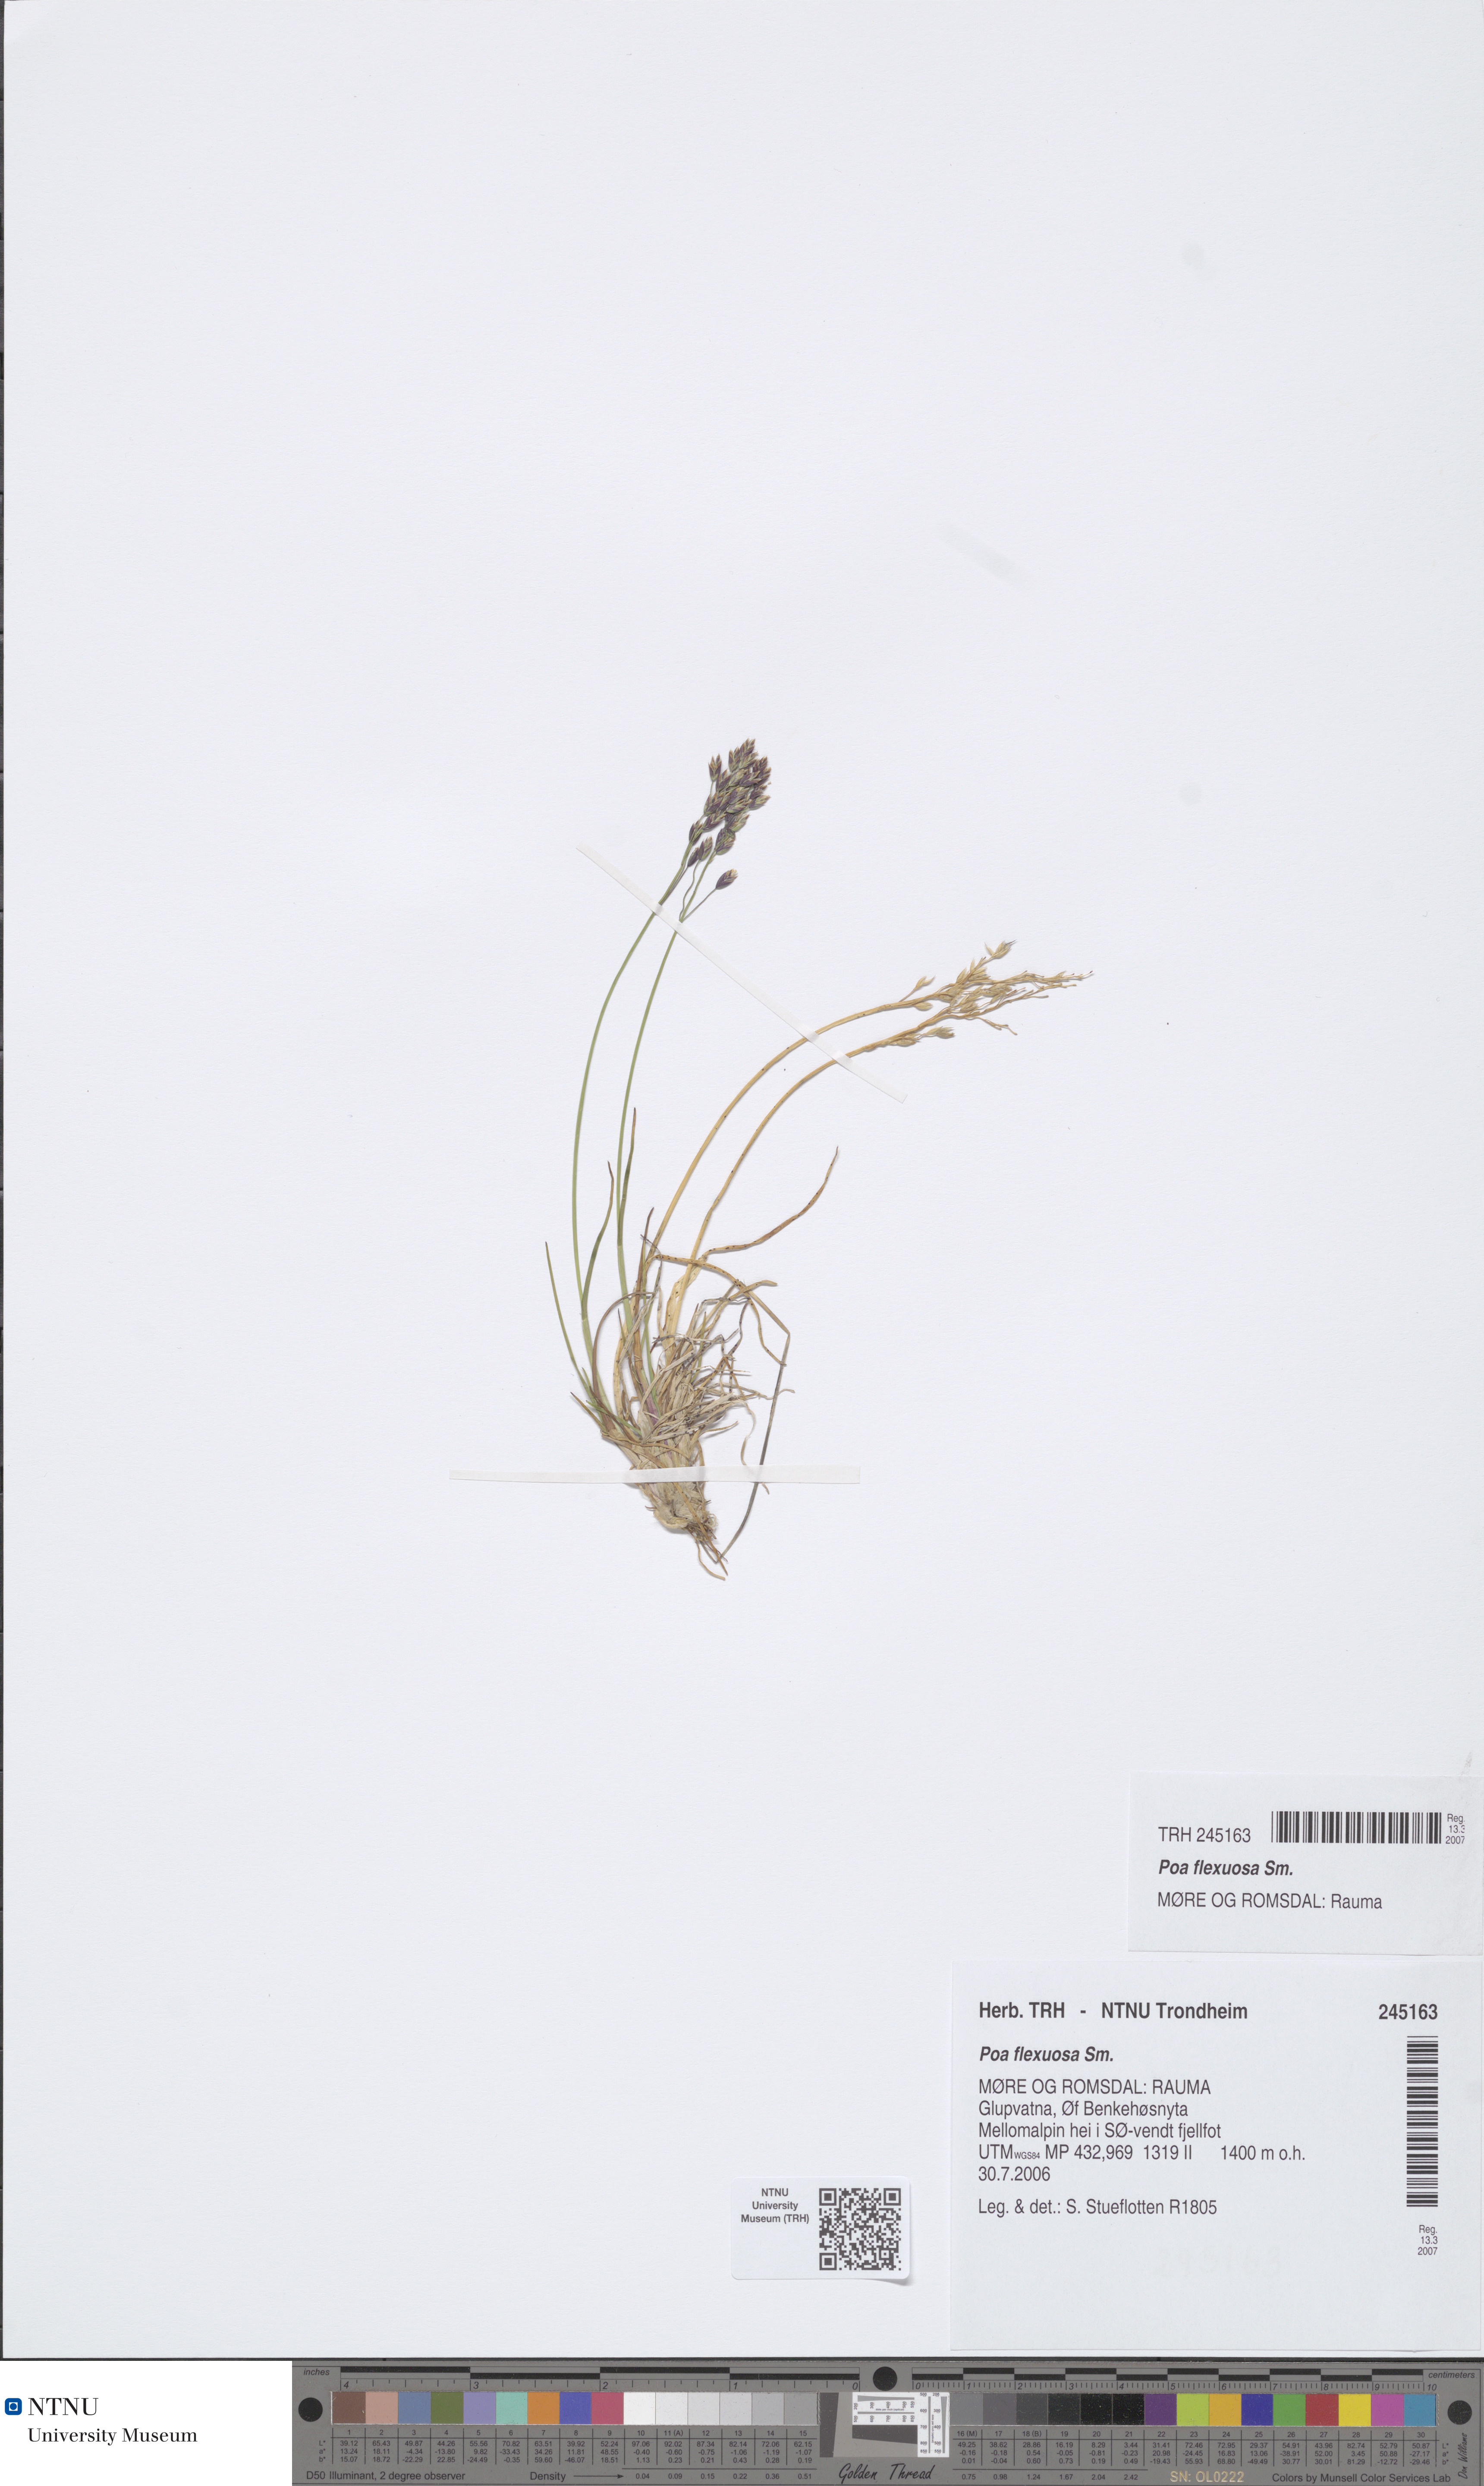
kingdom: Plantae
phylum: Tracheophyta
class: Liliopsida
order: Poales
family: Poaceae
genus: Poa
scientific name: Poa flexuosa
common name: Wavy meadow-grass
